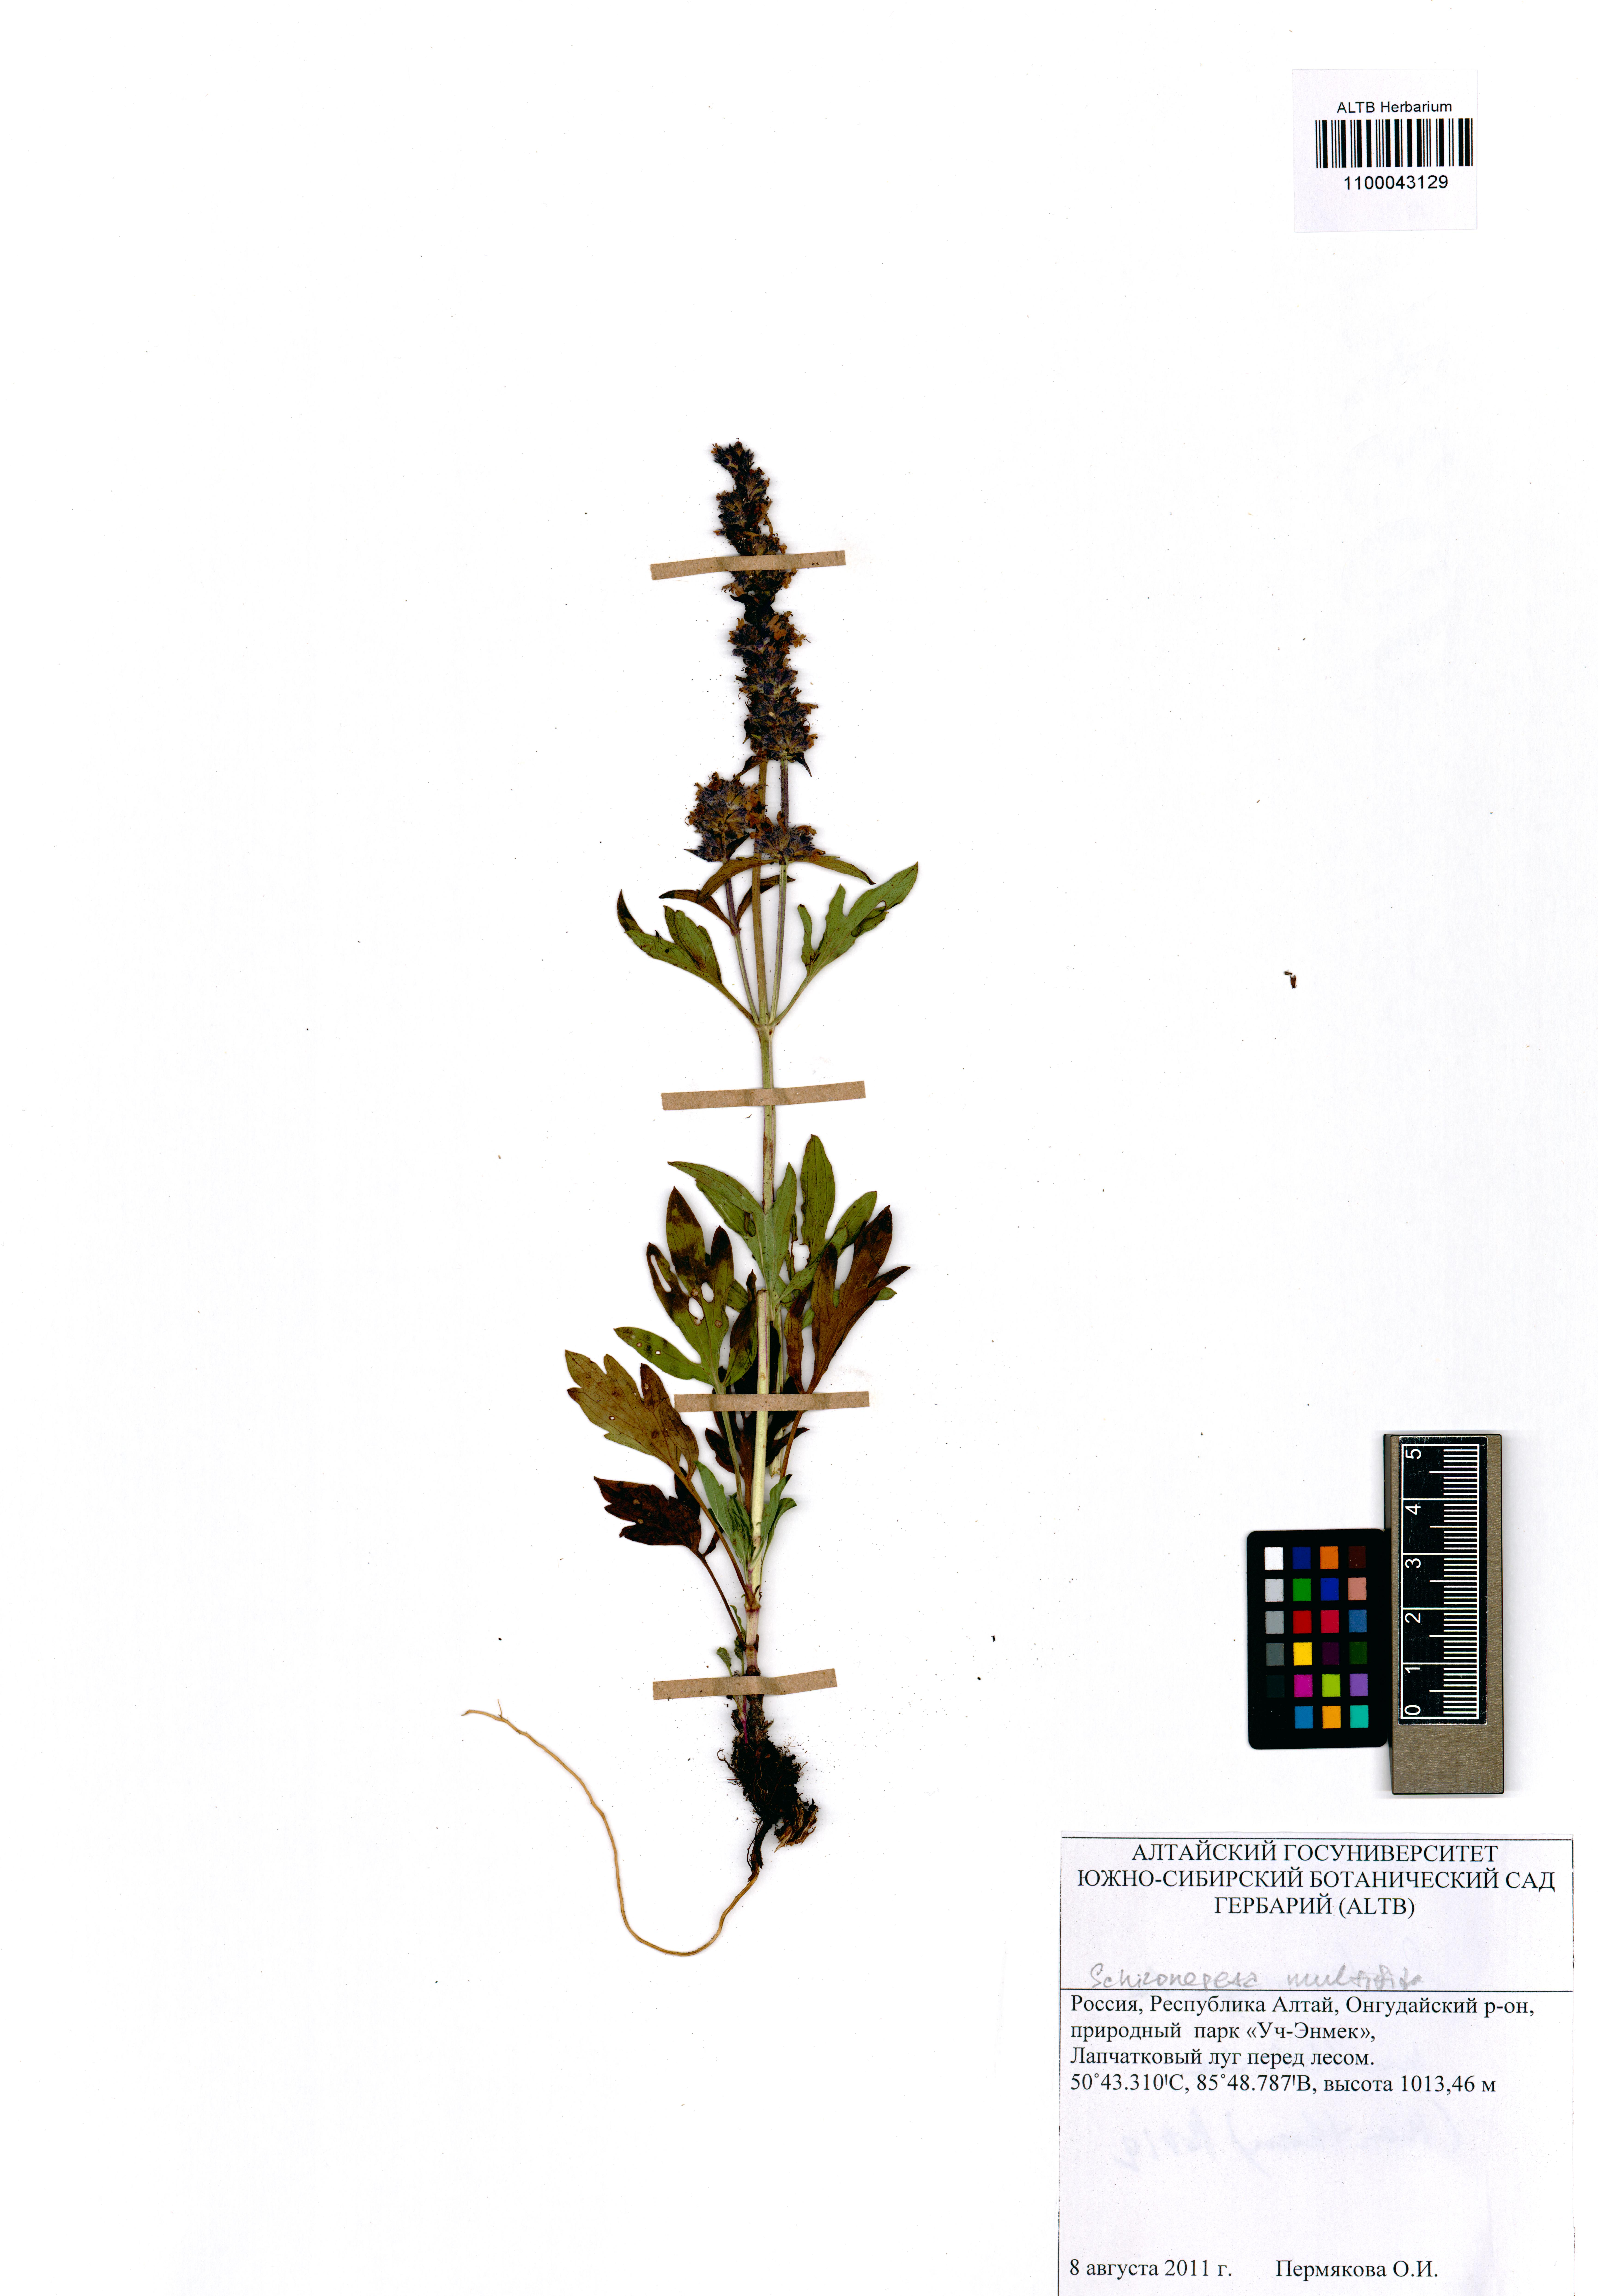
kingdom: Plantae
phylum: Tracheophyta
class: Magnoliopsida
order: Lamiales
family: Lamiaceae
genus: Nepeta
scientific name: Nepeta multifida
